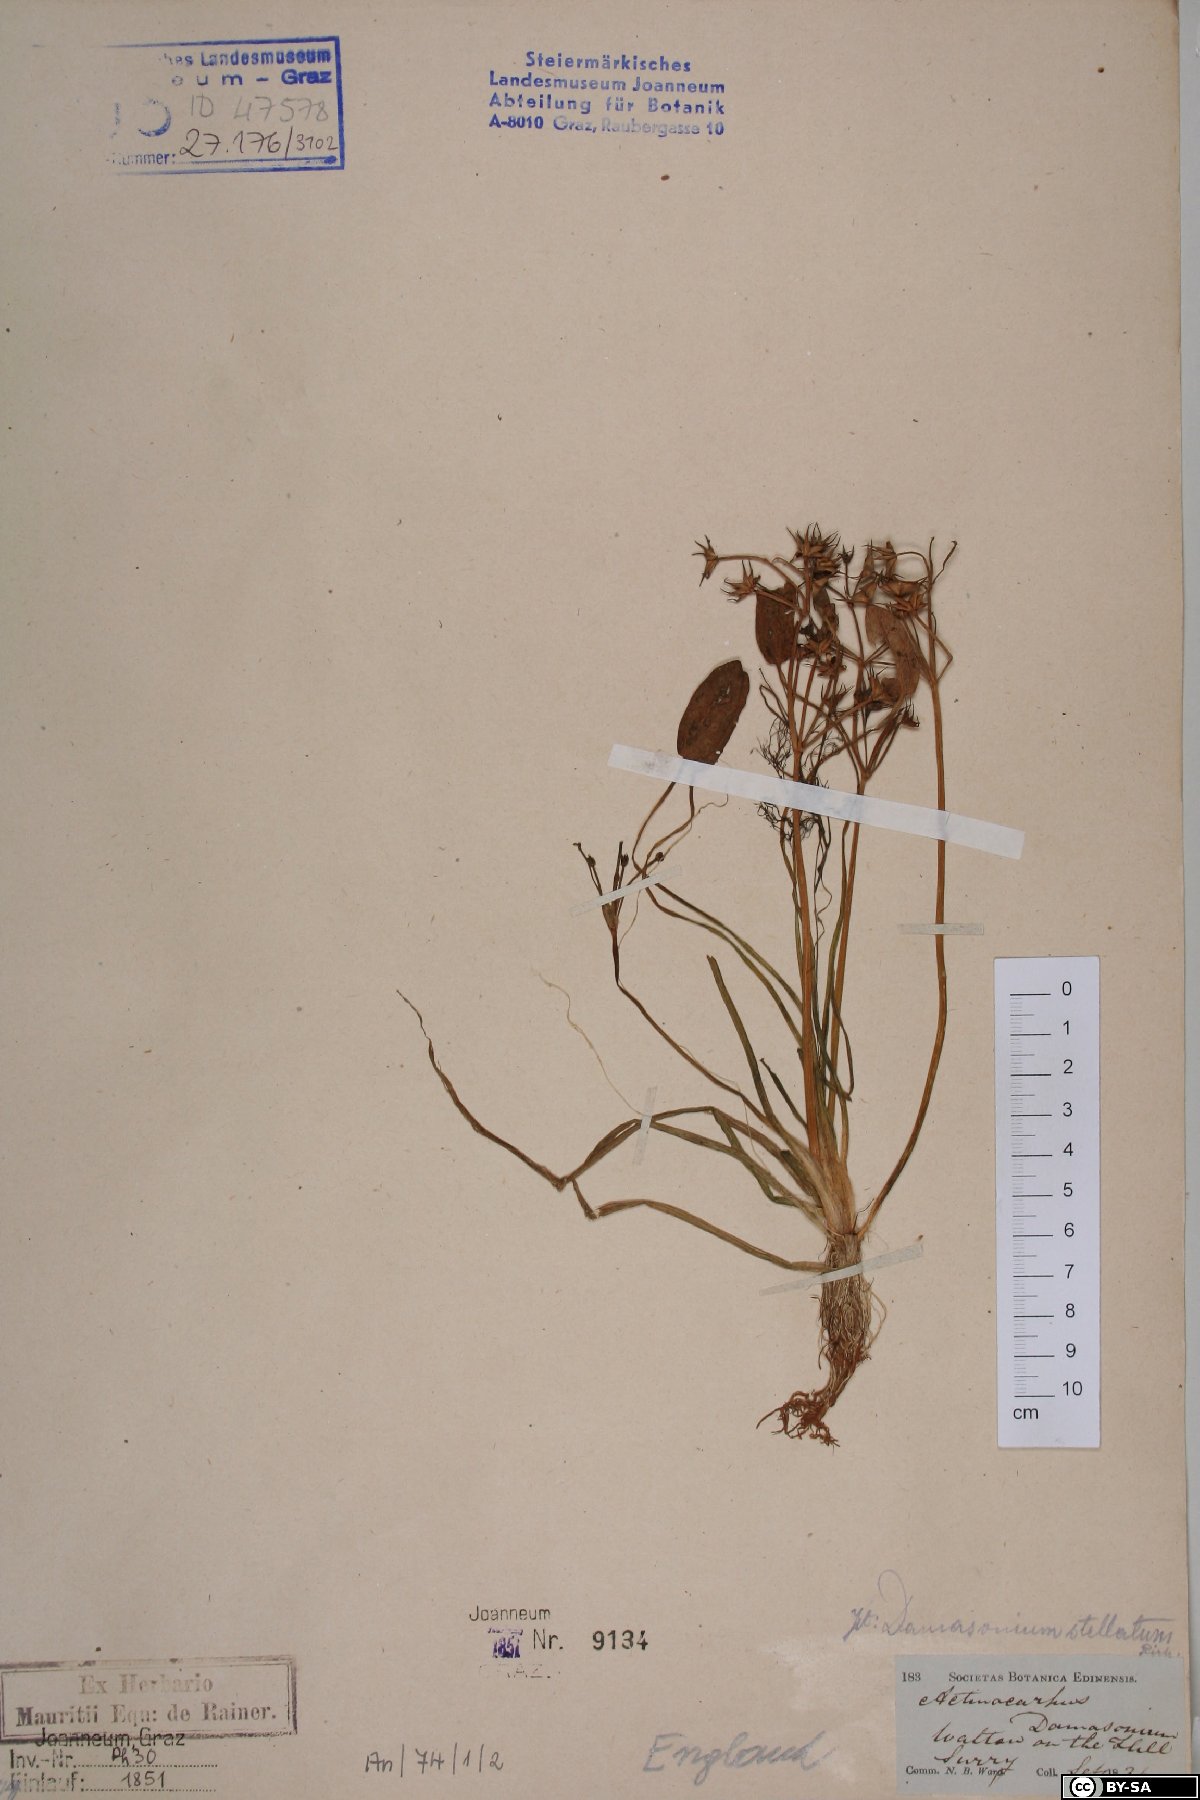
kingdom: Plantae
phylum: Tracheophyta
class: Liliopsida
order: Alismatales
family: Alismataceae
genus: Damasonium
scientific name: Damasonium alisma
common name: Starfruit
